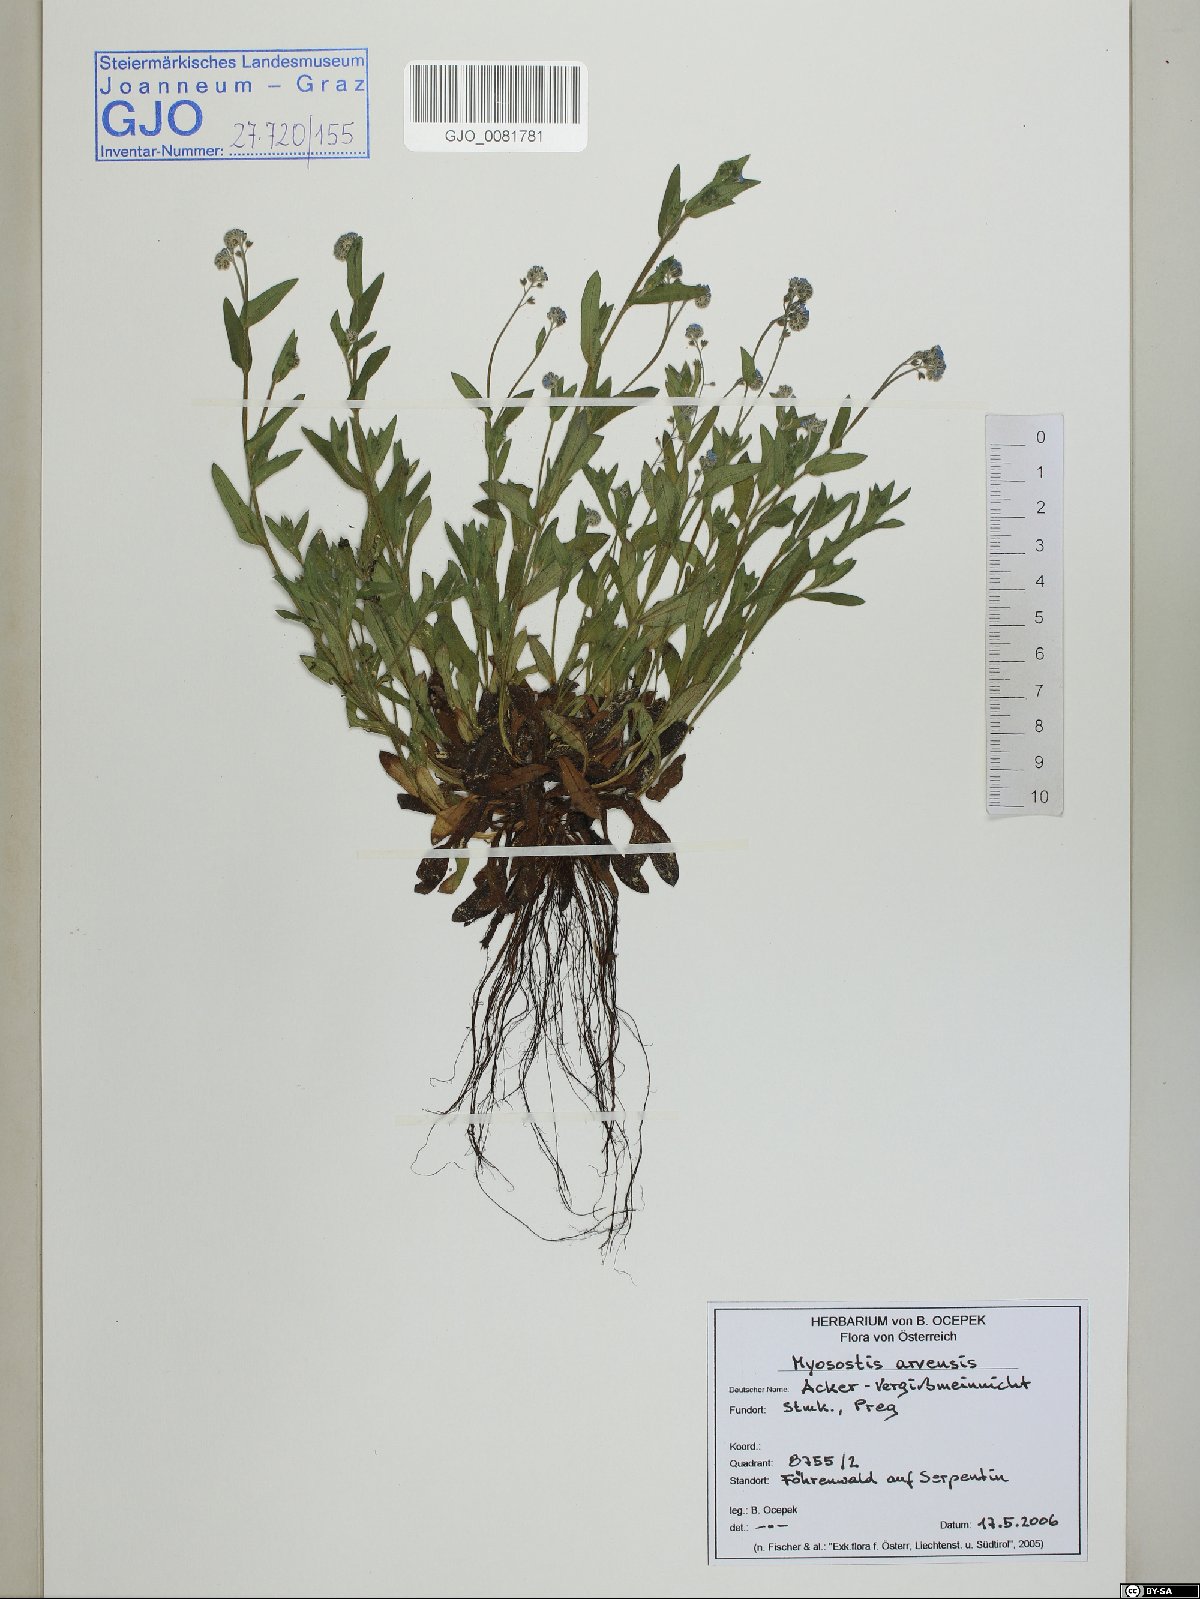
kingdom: Plantae
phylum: Tracheophyta
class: Magnoliopsida
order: Boraginales
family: Boraginaceae
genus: Myosotis
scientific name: Myosotis arvensis
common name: Field forget-me-not
